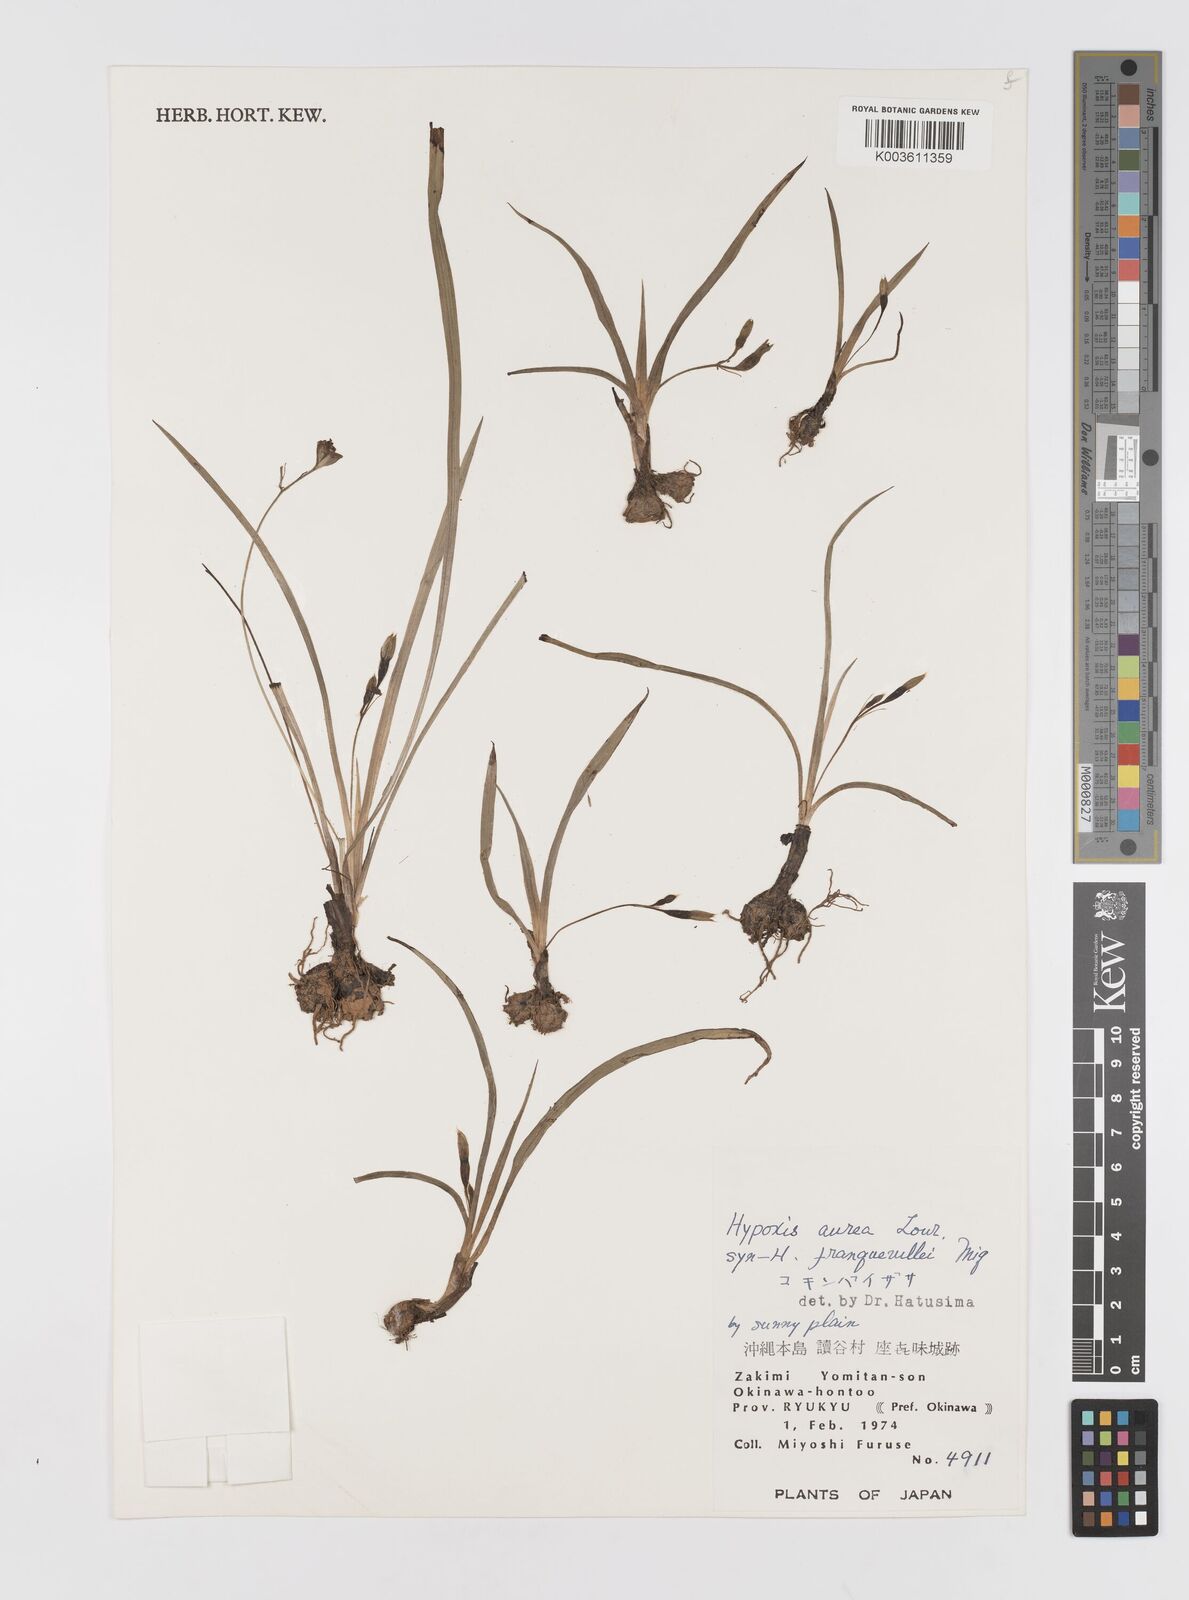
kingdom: Plantae
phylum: Tracheophyta
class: Liliopsida
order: Asparagales
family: Hypoxidaceae
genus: Hypoxis
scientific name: Hypoxis aurea
